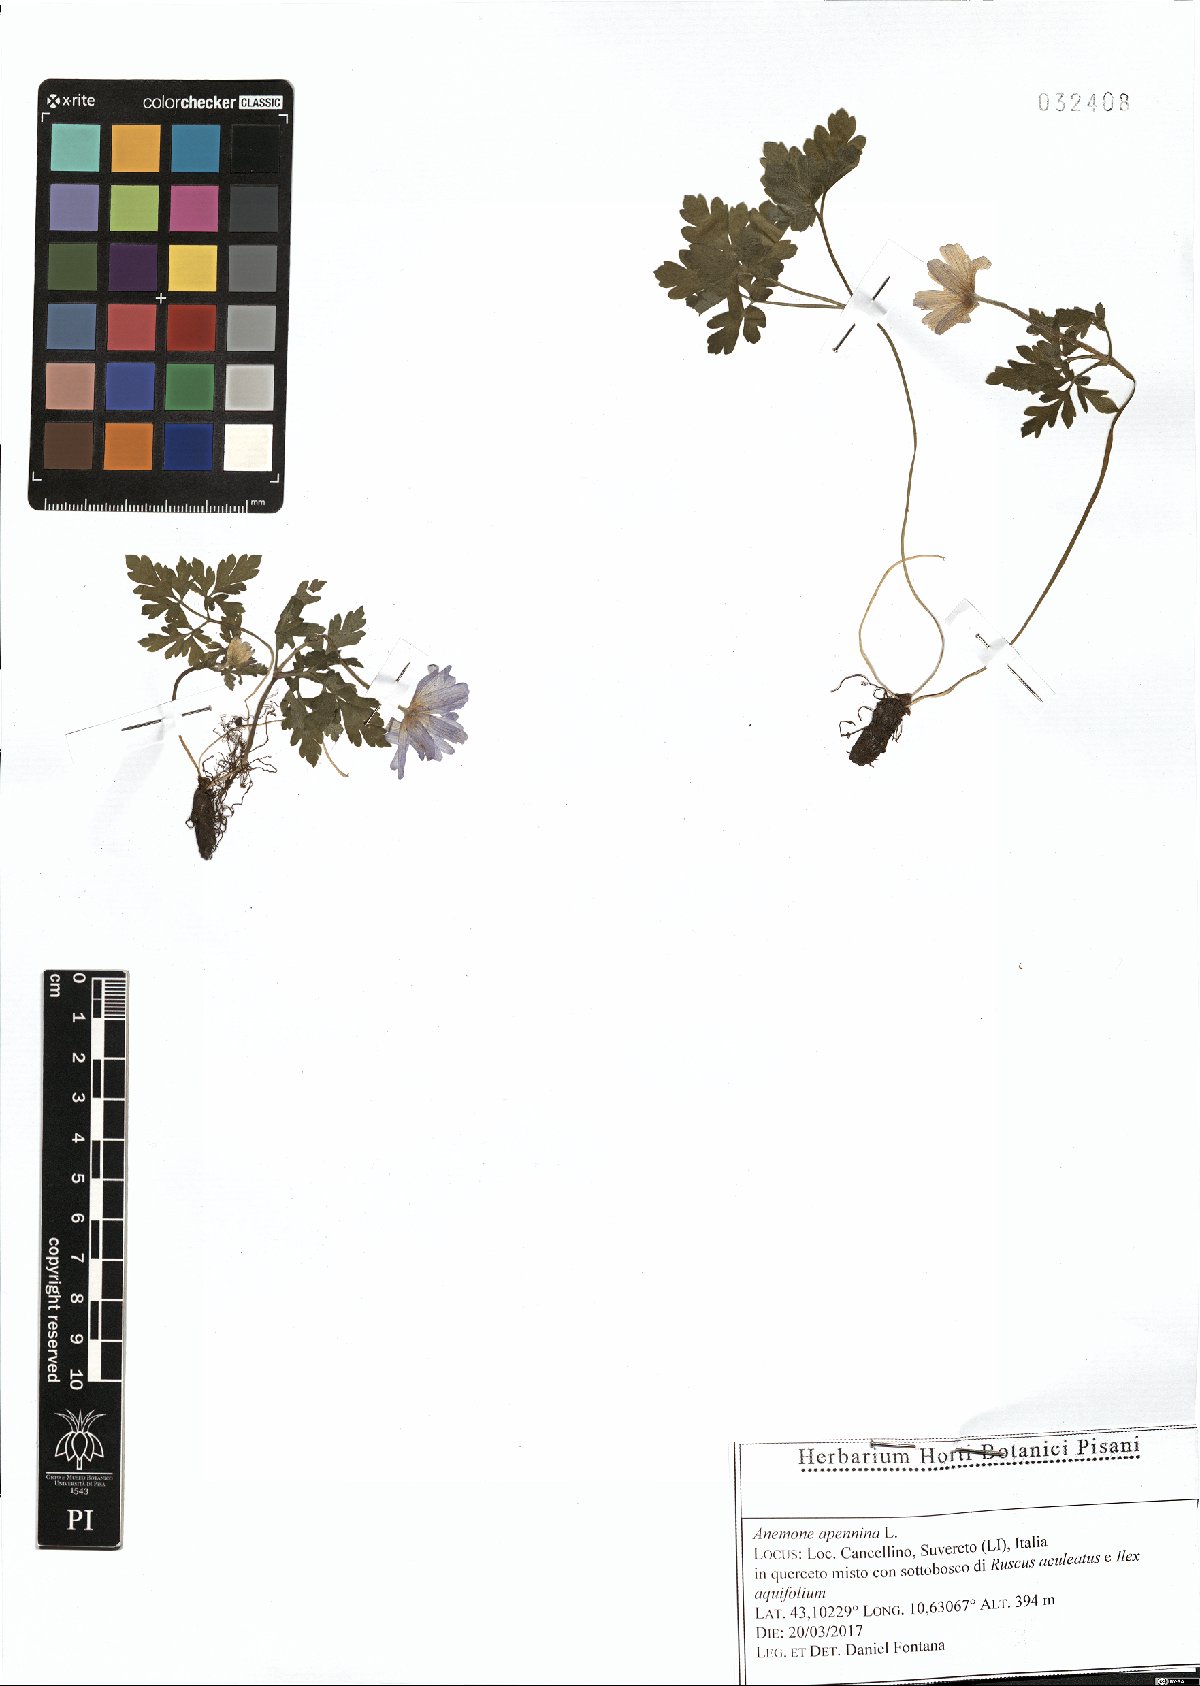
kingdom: Plantae
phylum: Tracheophyta
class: Magnoliopsida
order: Ranunculales
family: Ranunculaceae
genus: Anemone
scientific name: Anemone apennina
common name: Blue anemone
